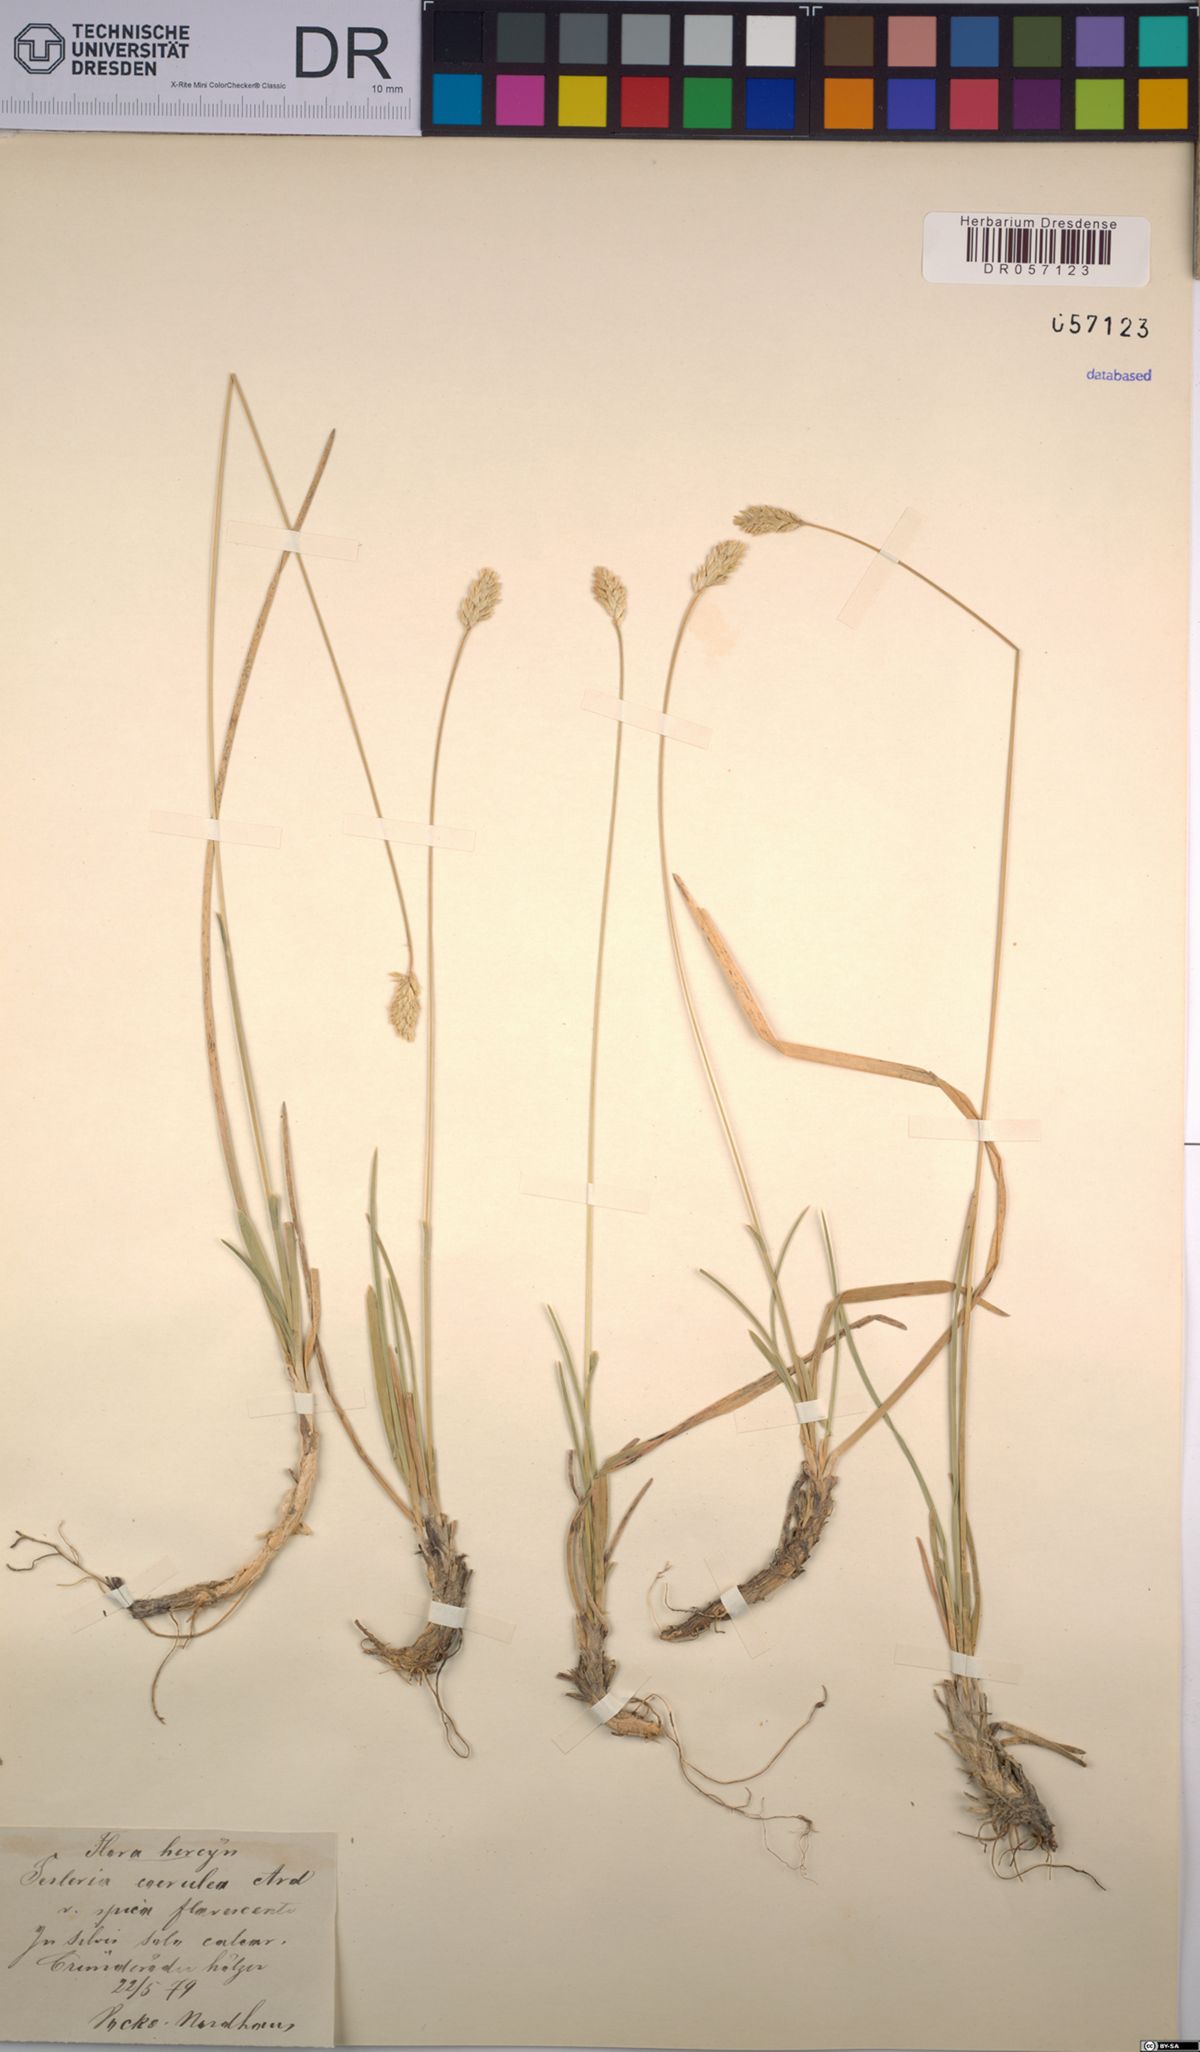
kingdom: Plantae
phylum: Tracheophyta
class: Liliopsida
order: Poales
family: Poaceae
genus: Sesleria
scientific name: Sesleria caerulea
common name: Blue moor-grass
